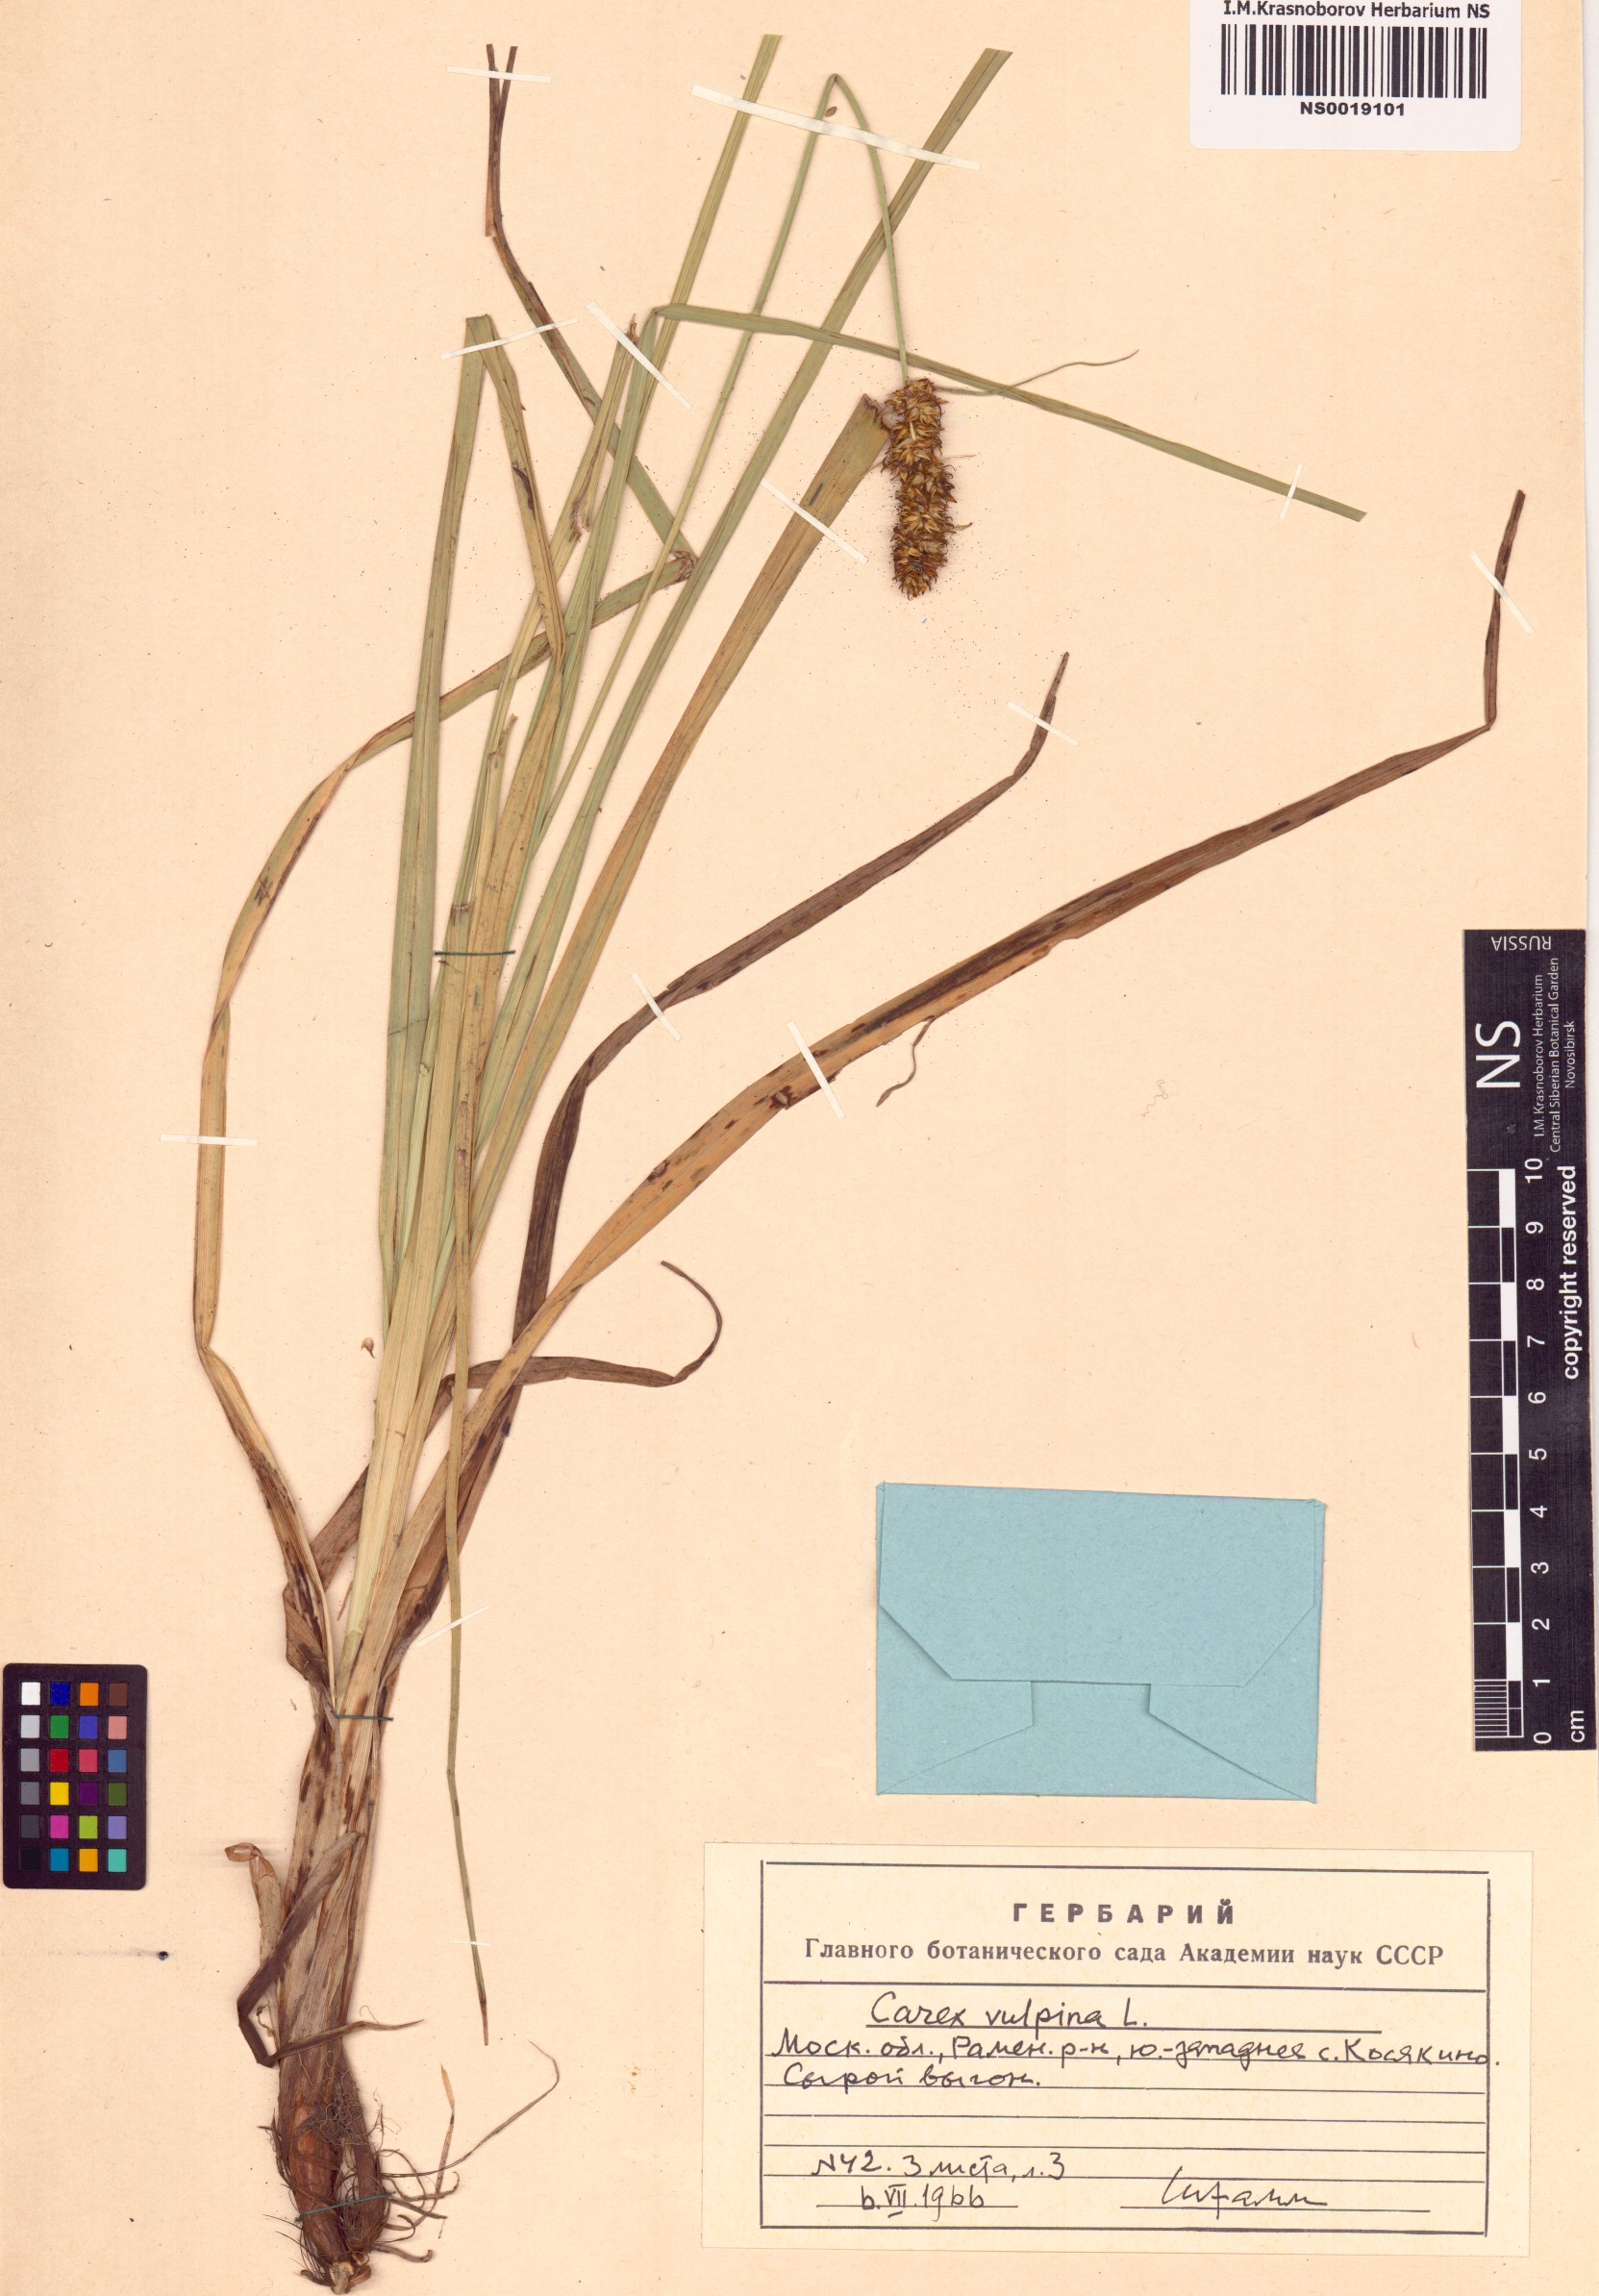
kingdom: Plantae
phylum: Tracheophyta
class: Liliopsida
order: Poales
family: Cyperaceae
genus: Carex
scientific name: Carex vulpina
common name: True fox-sedge
